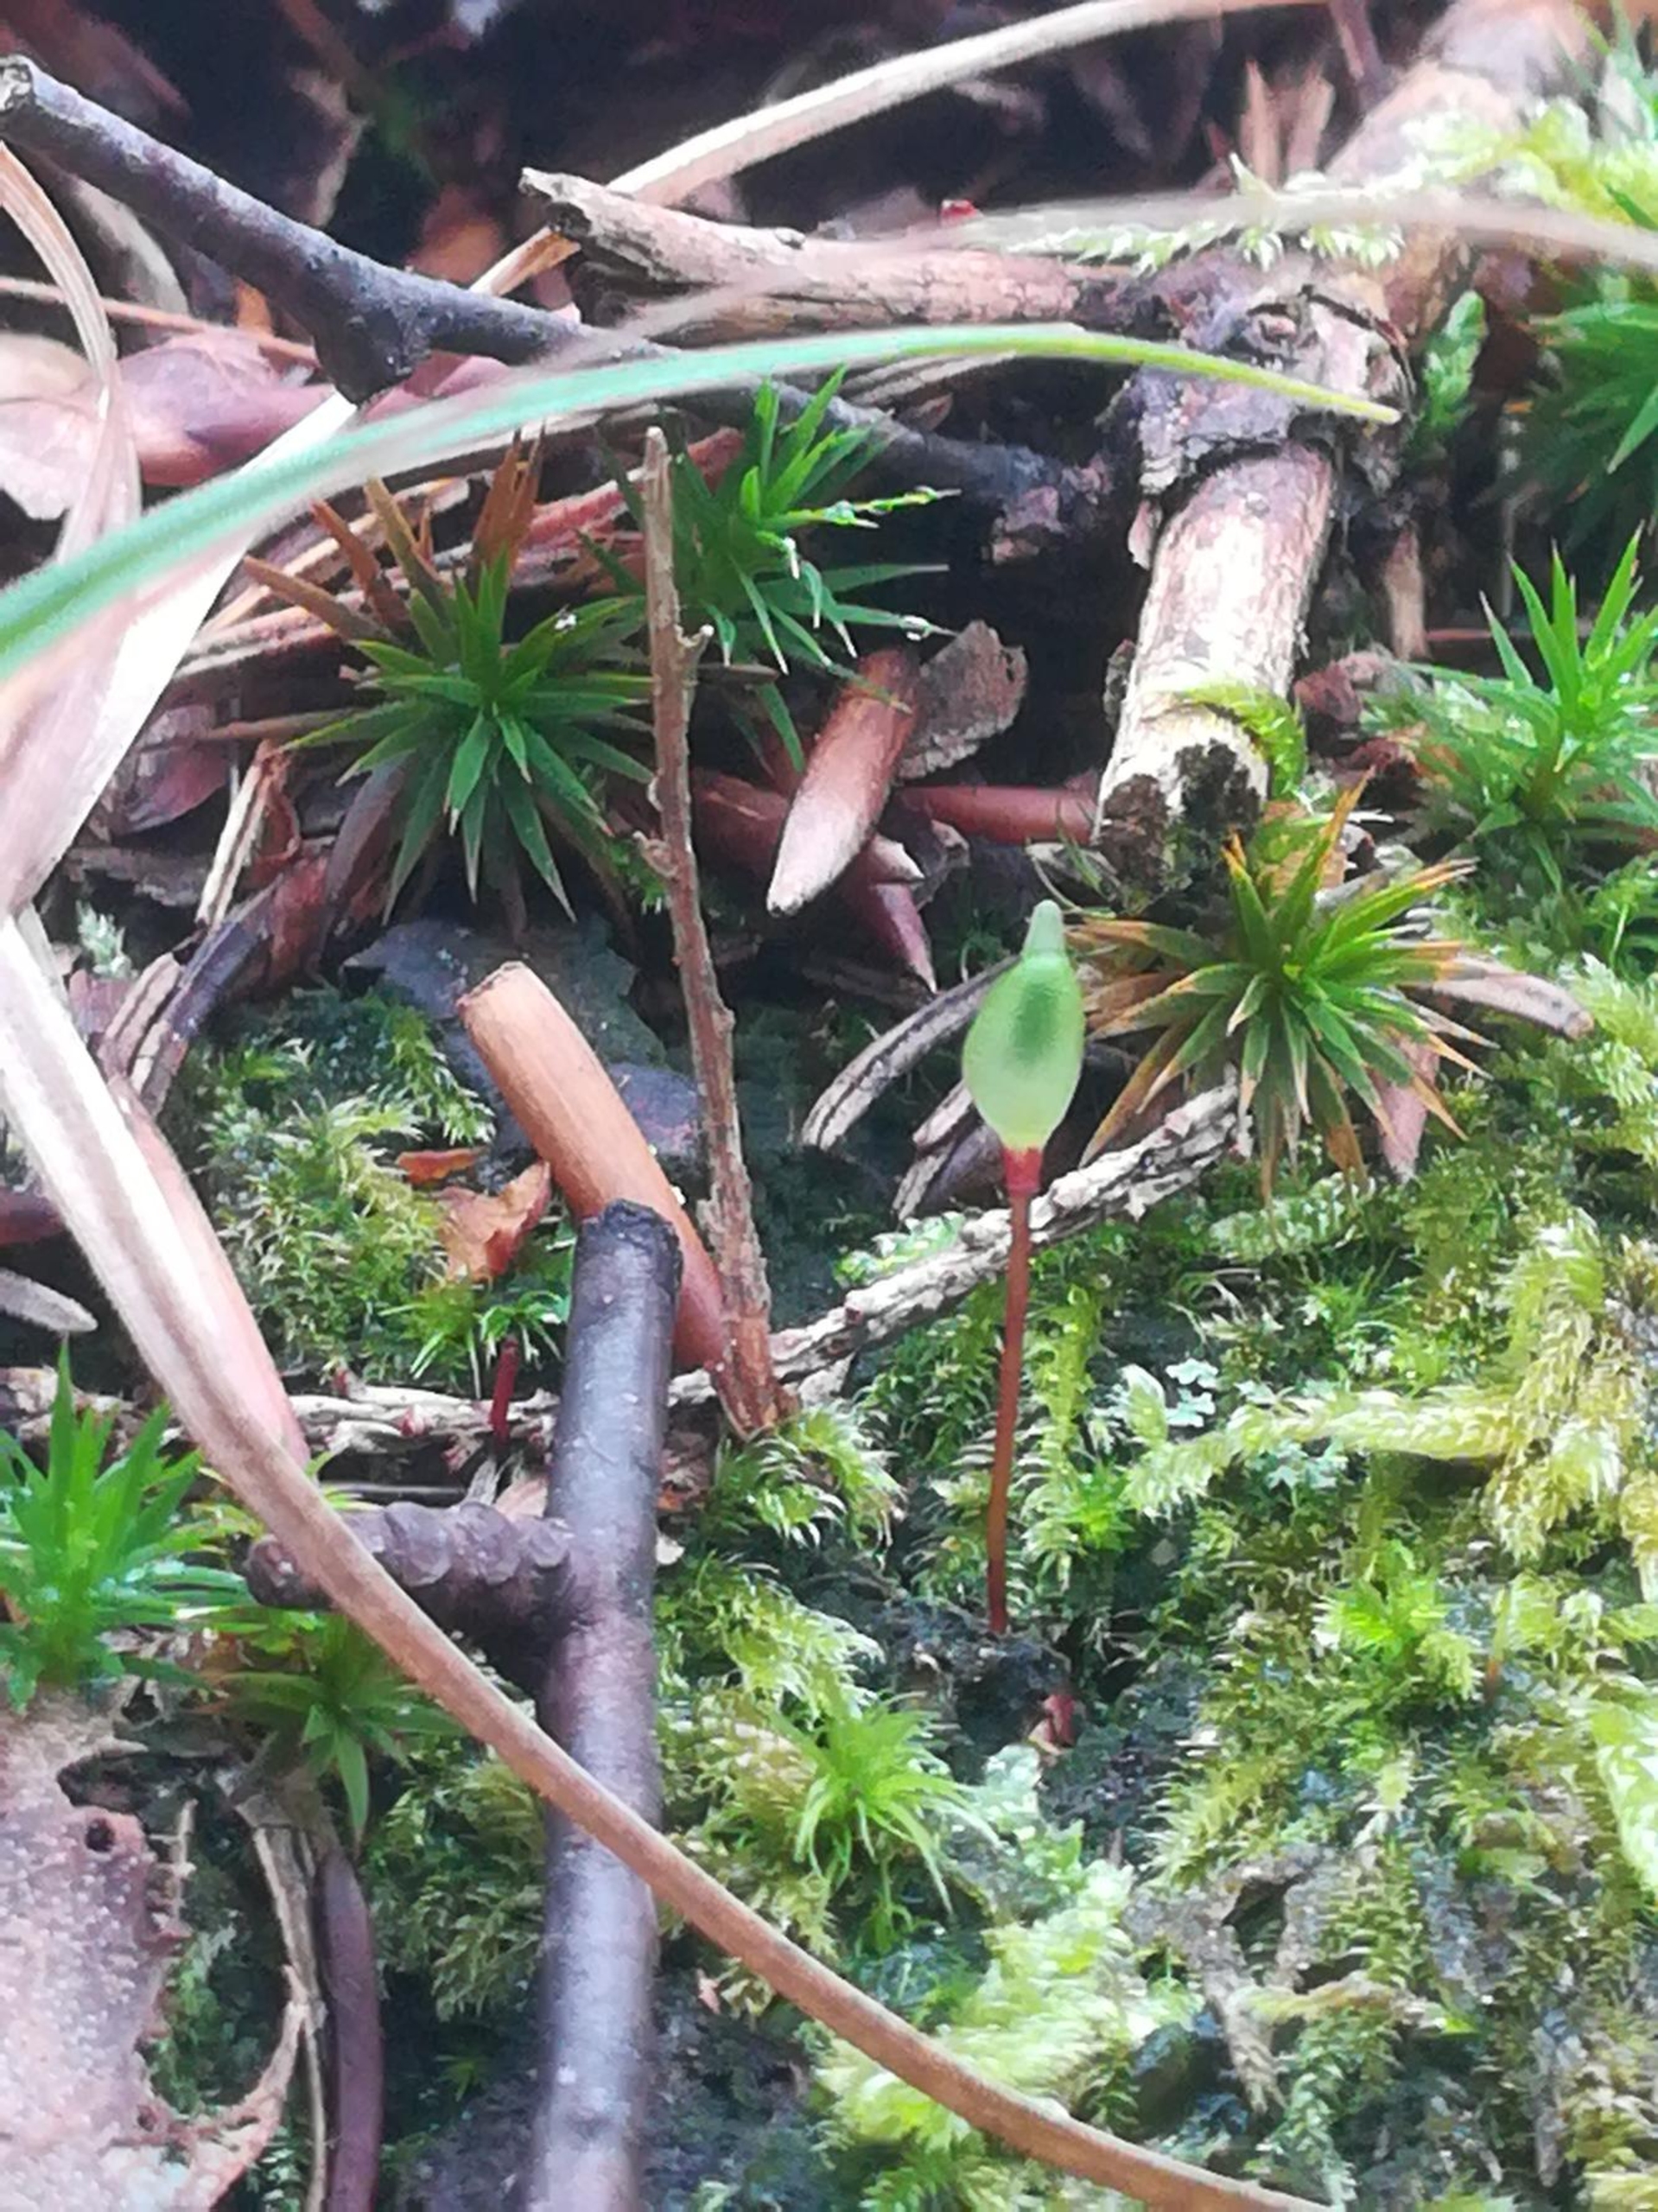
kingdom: Plantae
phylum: Bryophyta
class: Bryopsida
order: Buxbaumiales
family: Buxbaumiaceae
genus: Buxbaumia
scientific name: Buxbaumia aphylla
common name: Rundkapslet buxbaumia
